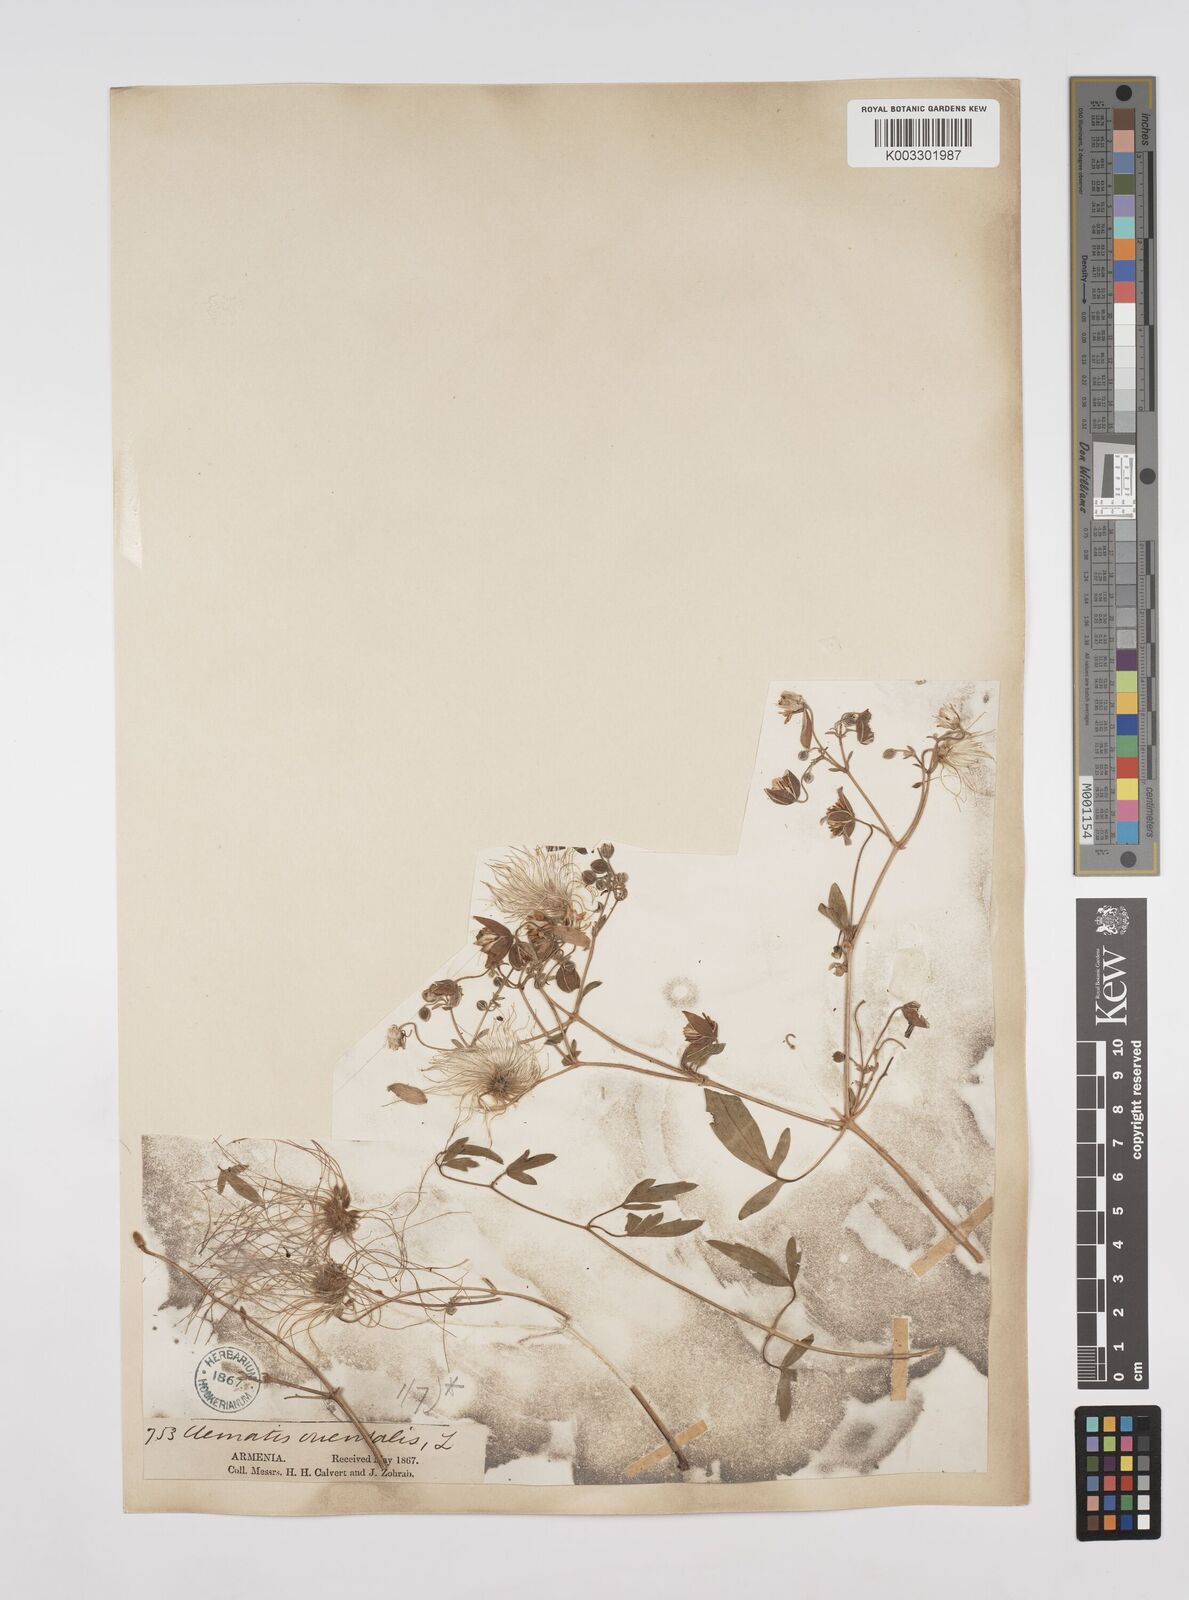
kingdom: Plantae
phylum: Tracheophyta
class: Magnoliopsida
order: Ranunculales
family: Ranunculaceae
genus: Clematis
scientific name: Clematis orientalis
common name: Oriental virgin's-bower
